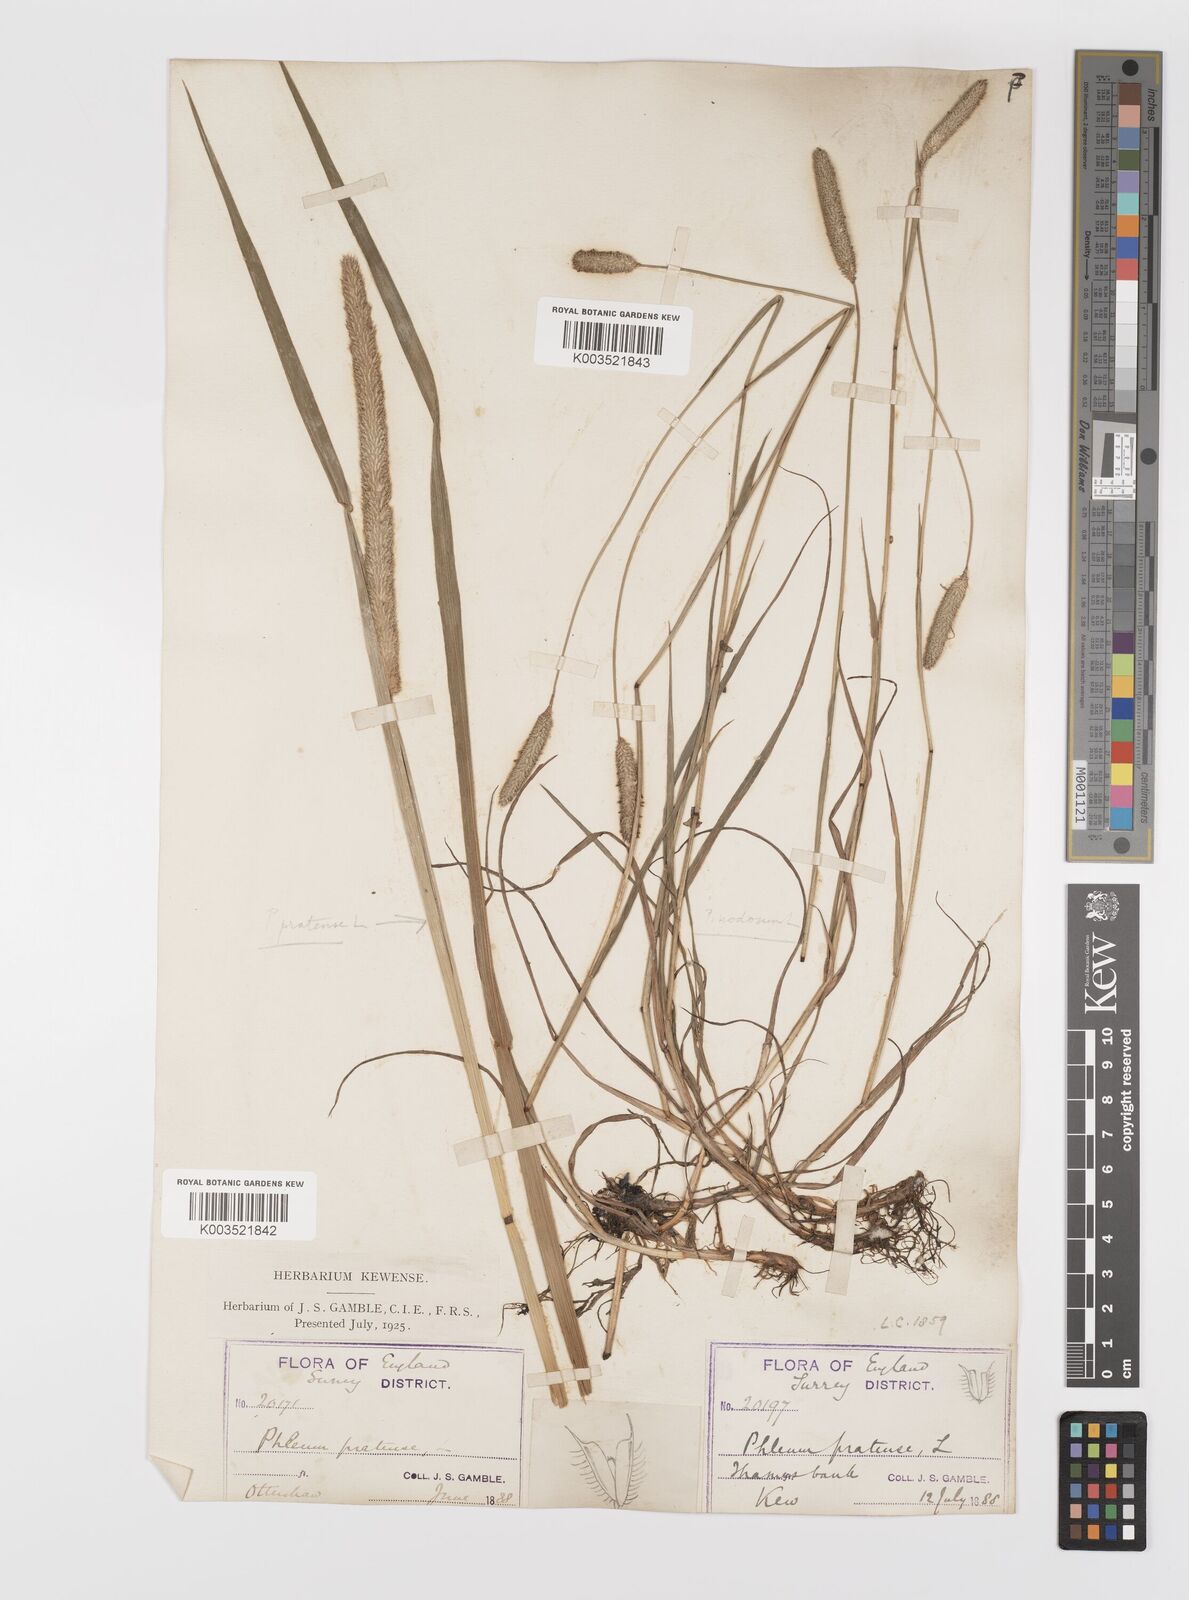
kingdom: Plantae
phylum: Tracheophyta
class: Liliopsida
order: Poales
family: Poaceae
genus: Phleum
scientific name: Phleum bertolonii
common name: Smaller cat's-tail
